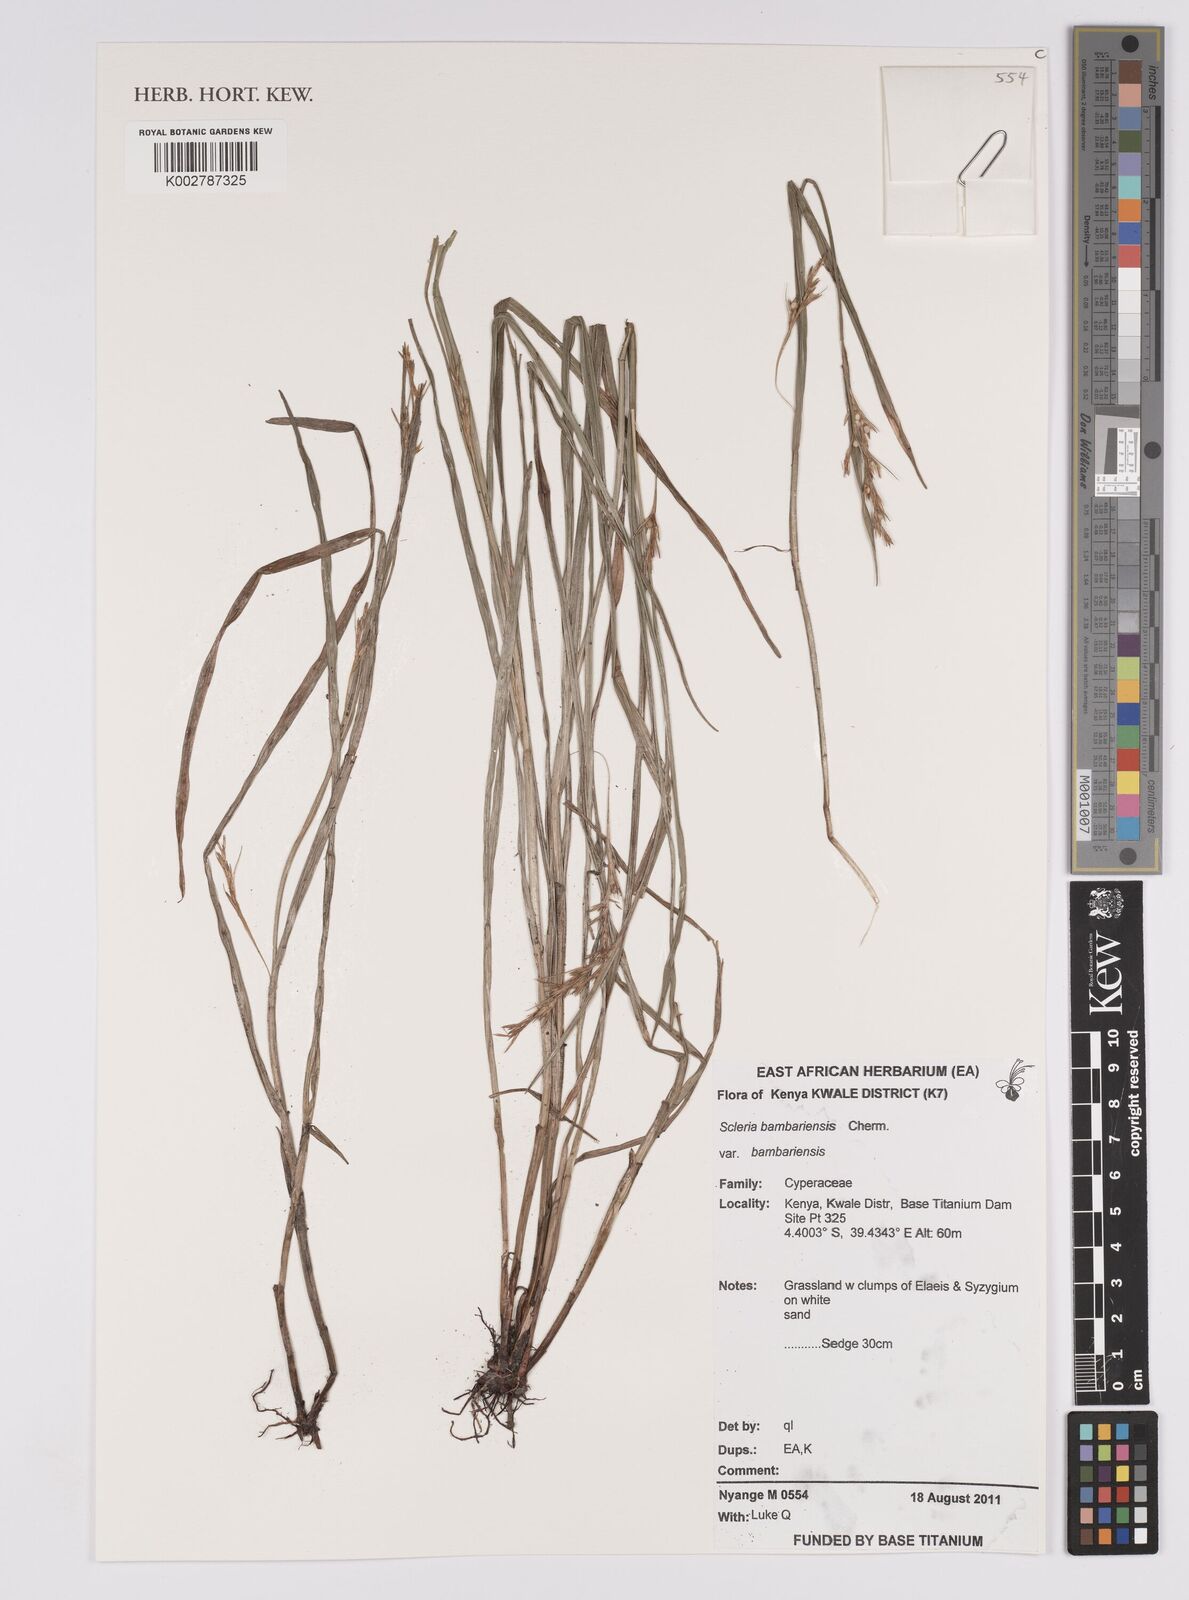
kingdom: Plantae
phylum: Tracheophyta
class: Liliopsida
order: Poales
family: Cyperaceae
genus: Scleria
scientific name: Scleria bambariensis
